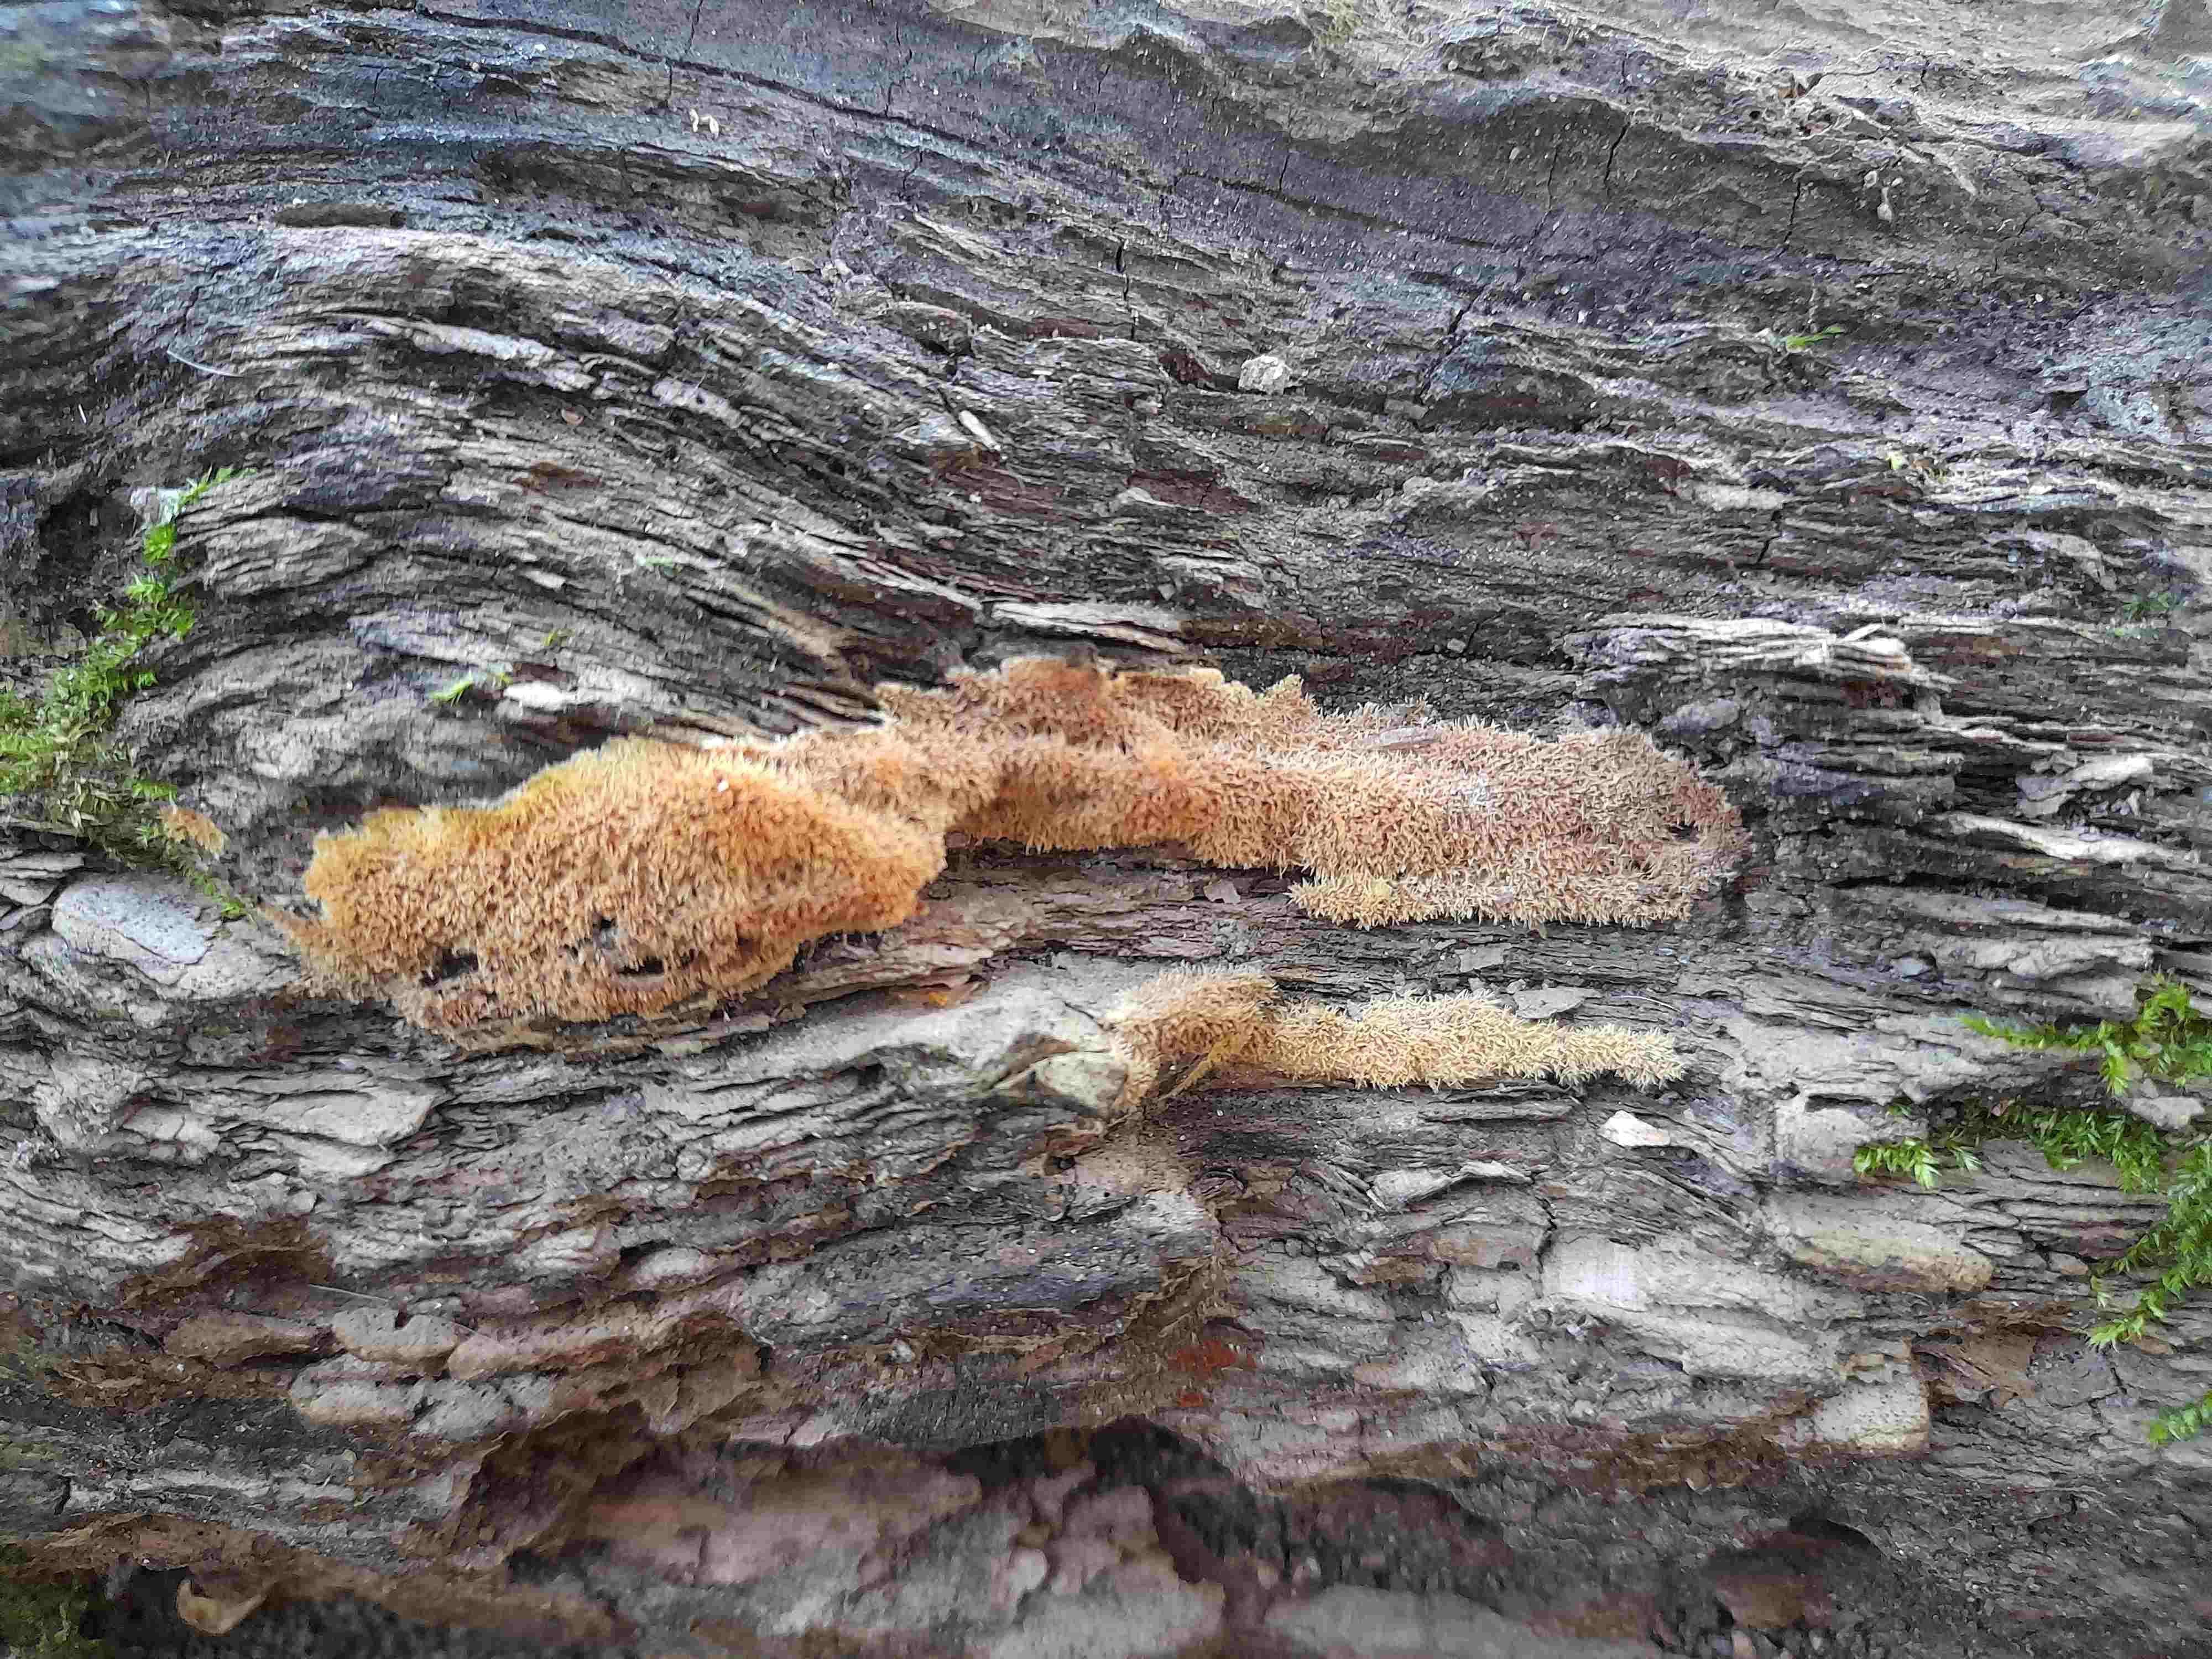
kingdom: Fungi
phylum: Basidiomycota
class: Agaricomycetes
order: Corticiales
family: Corticiaceae
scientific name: Corticiaceae
